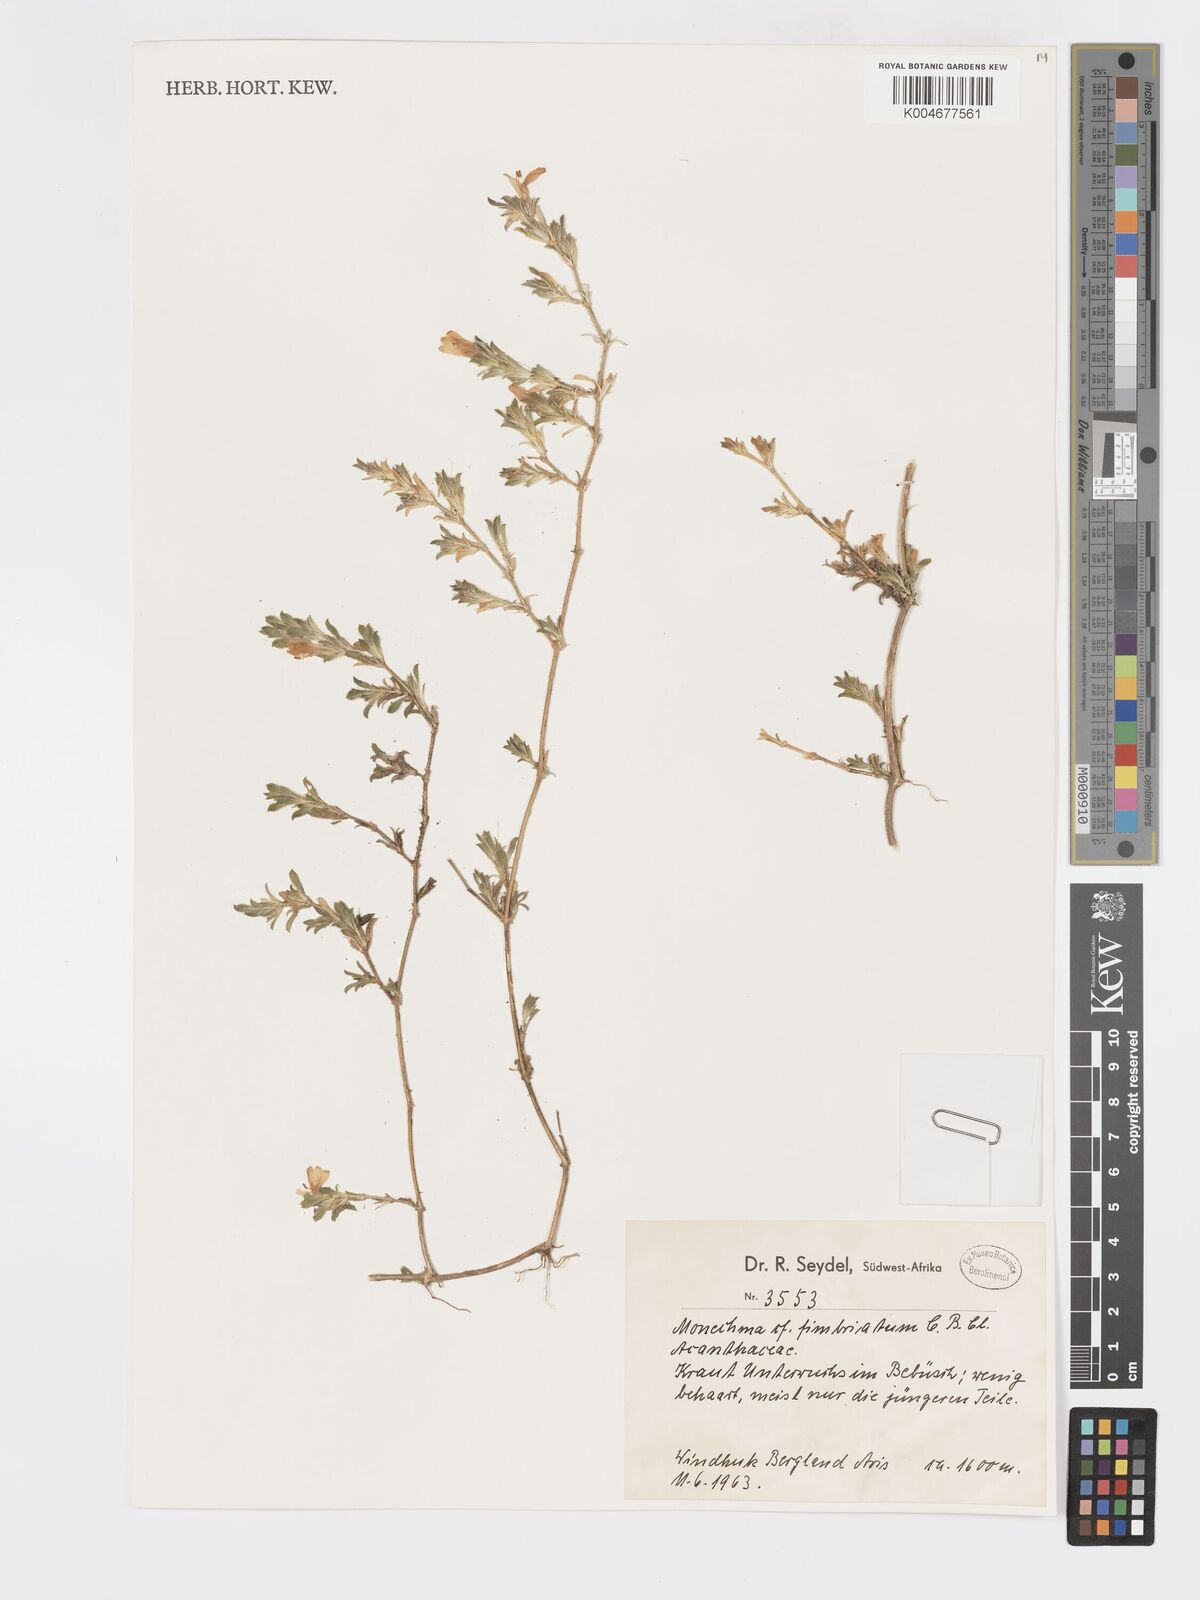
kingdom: Plantae
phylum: Tracheophyta
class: Magnoliopsida
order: Lamiales
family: Acanthaceae
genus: Pogonospermum
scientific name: Pogonospermum
